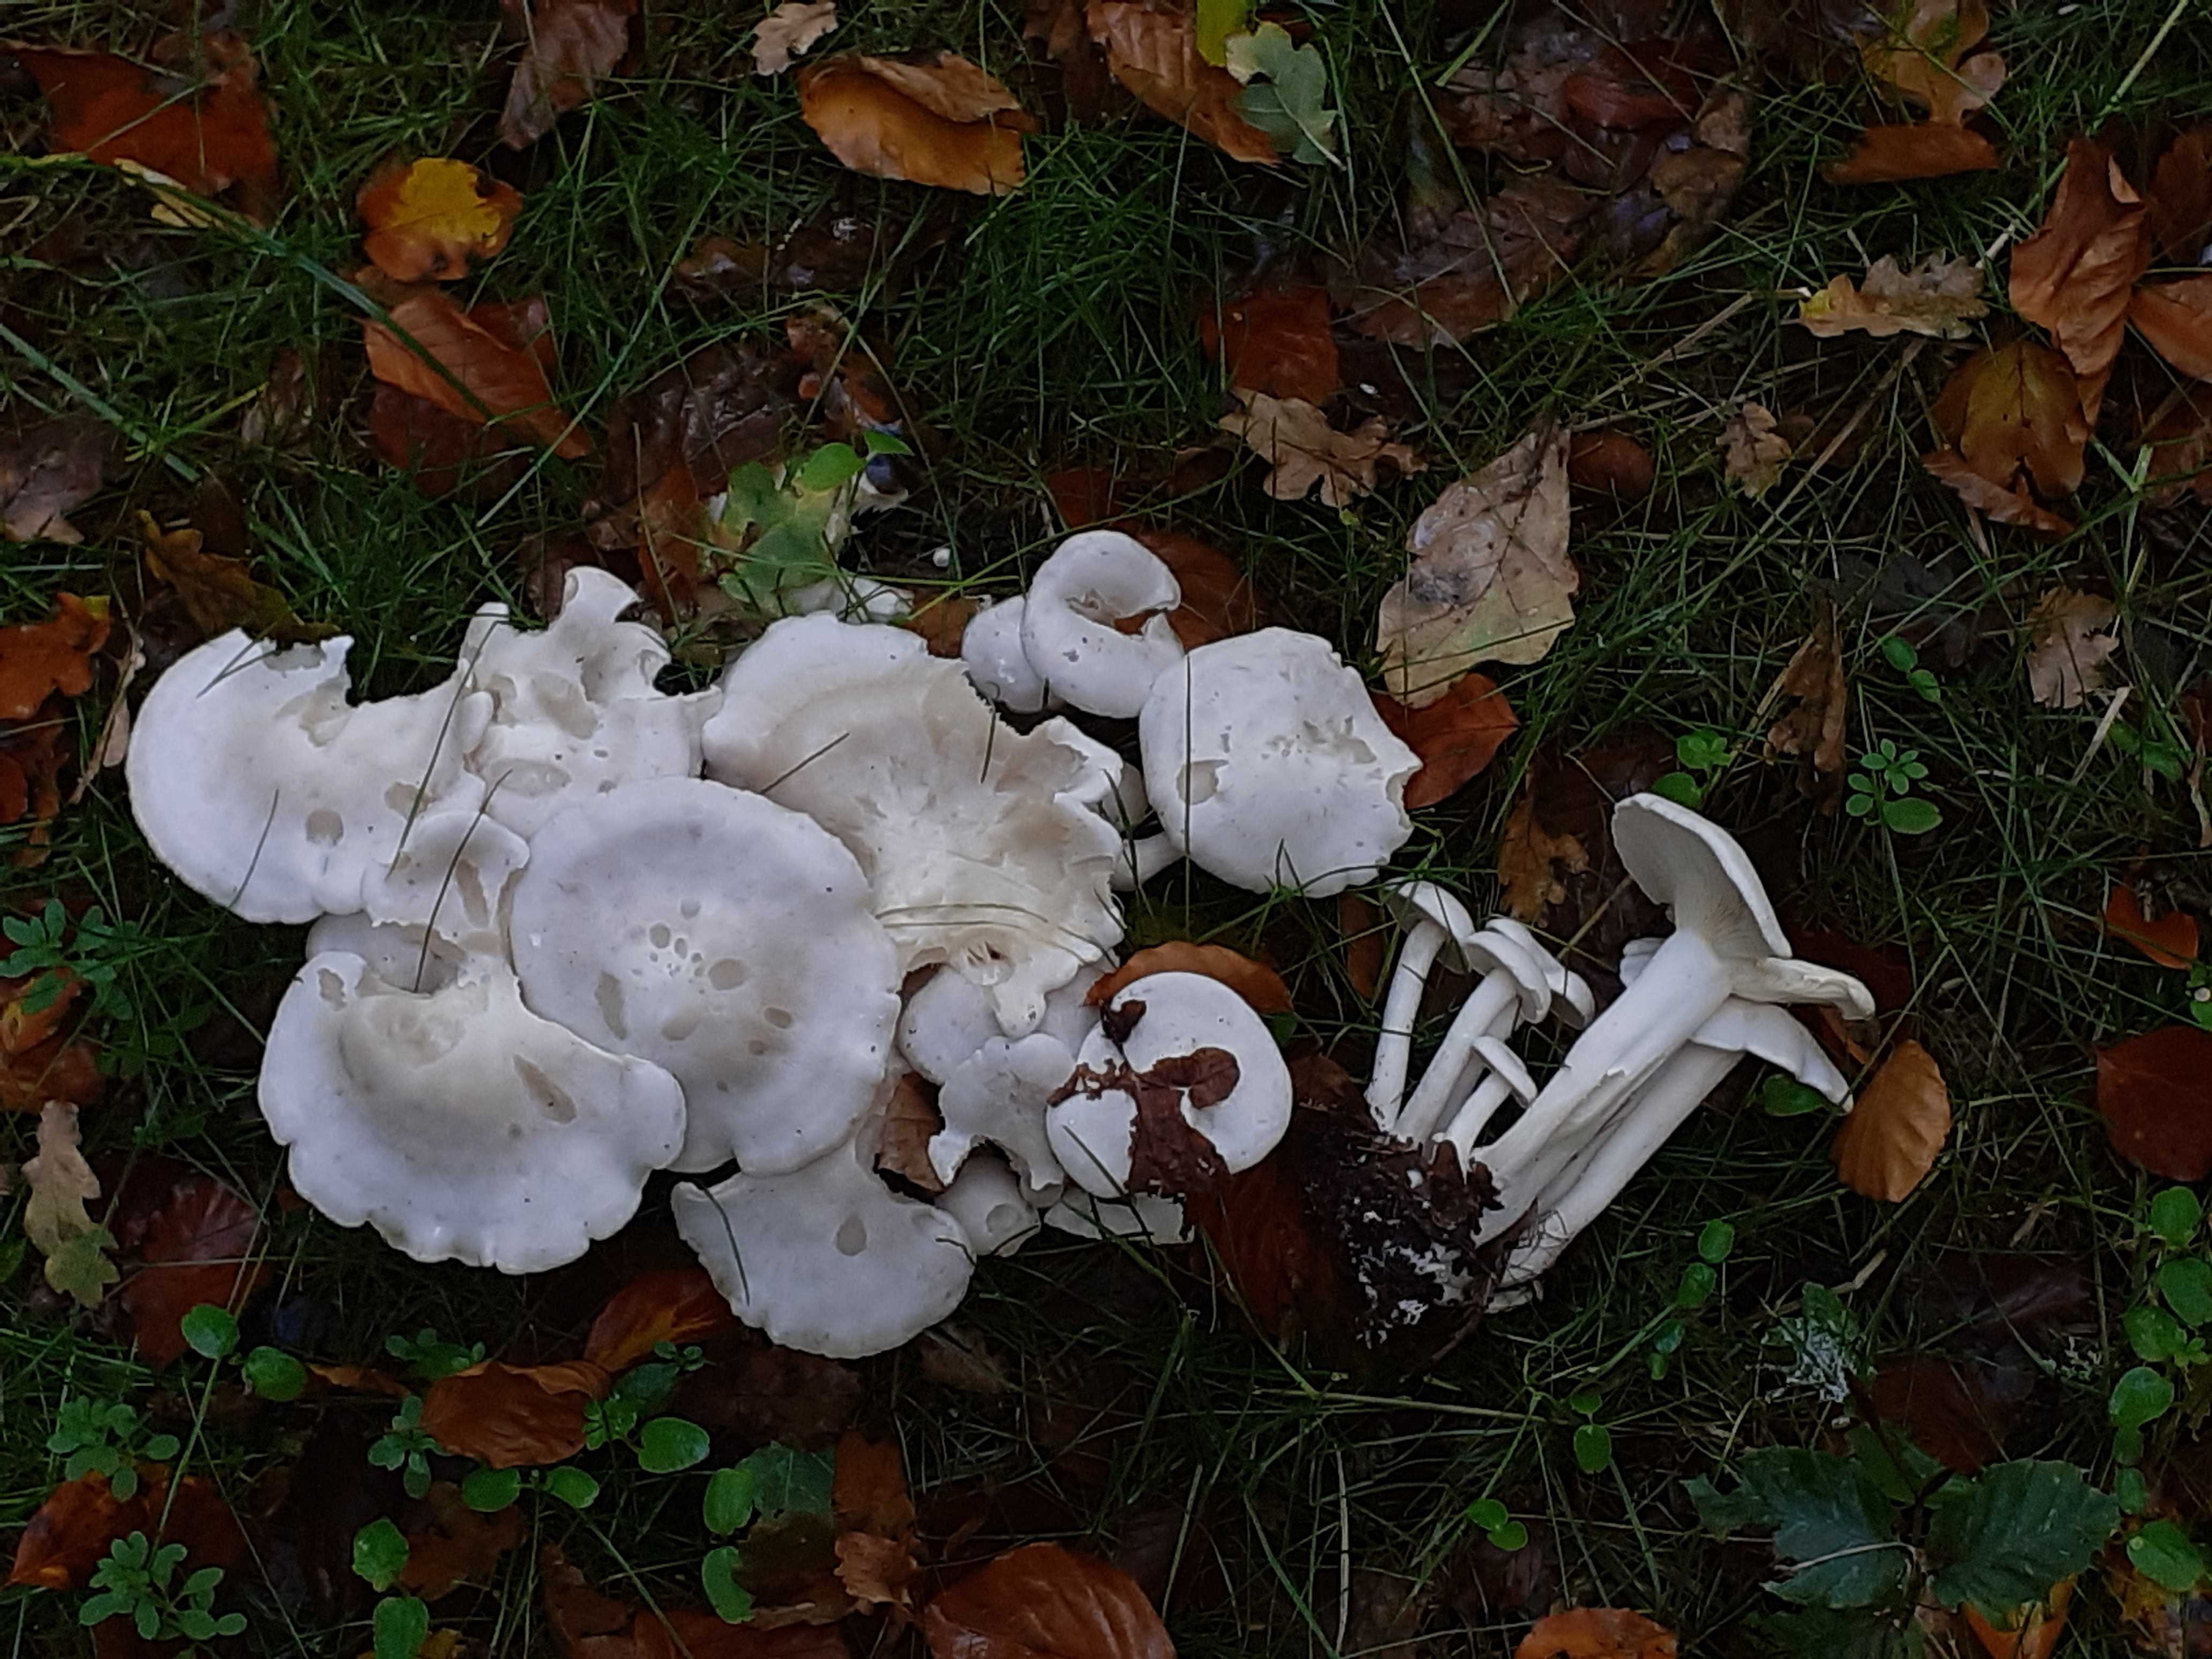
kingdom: Fungi
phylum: Basidiomycota
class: Agaricomycetes
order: Agaricales
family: Tricholomataceae
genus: Leucocybe
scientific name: Leucocybe connata
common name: knippe-tragthat
